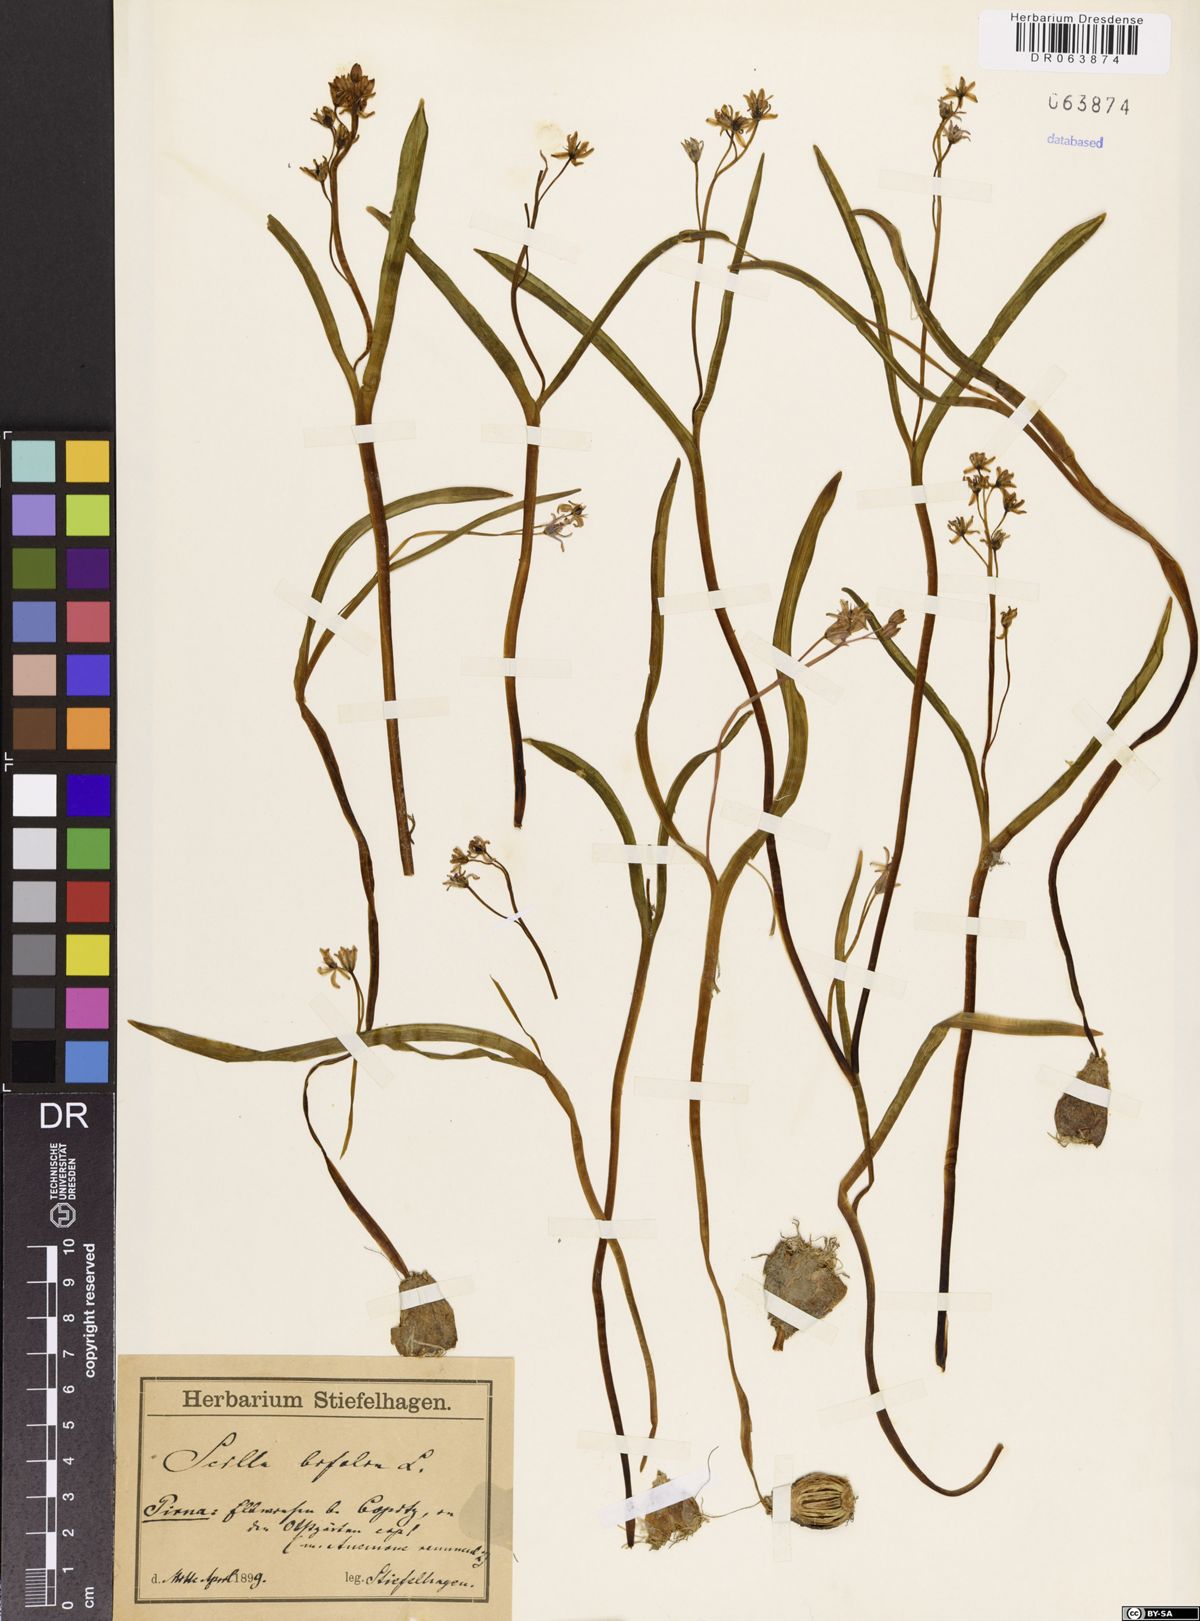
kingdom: Plantae
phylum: Tracheophyta
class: Liliopsida
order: Asparagales
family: Asparagaceae
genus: Scilla
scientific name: Scilla bifolia
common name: Alpine squill
